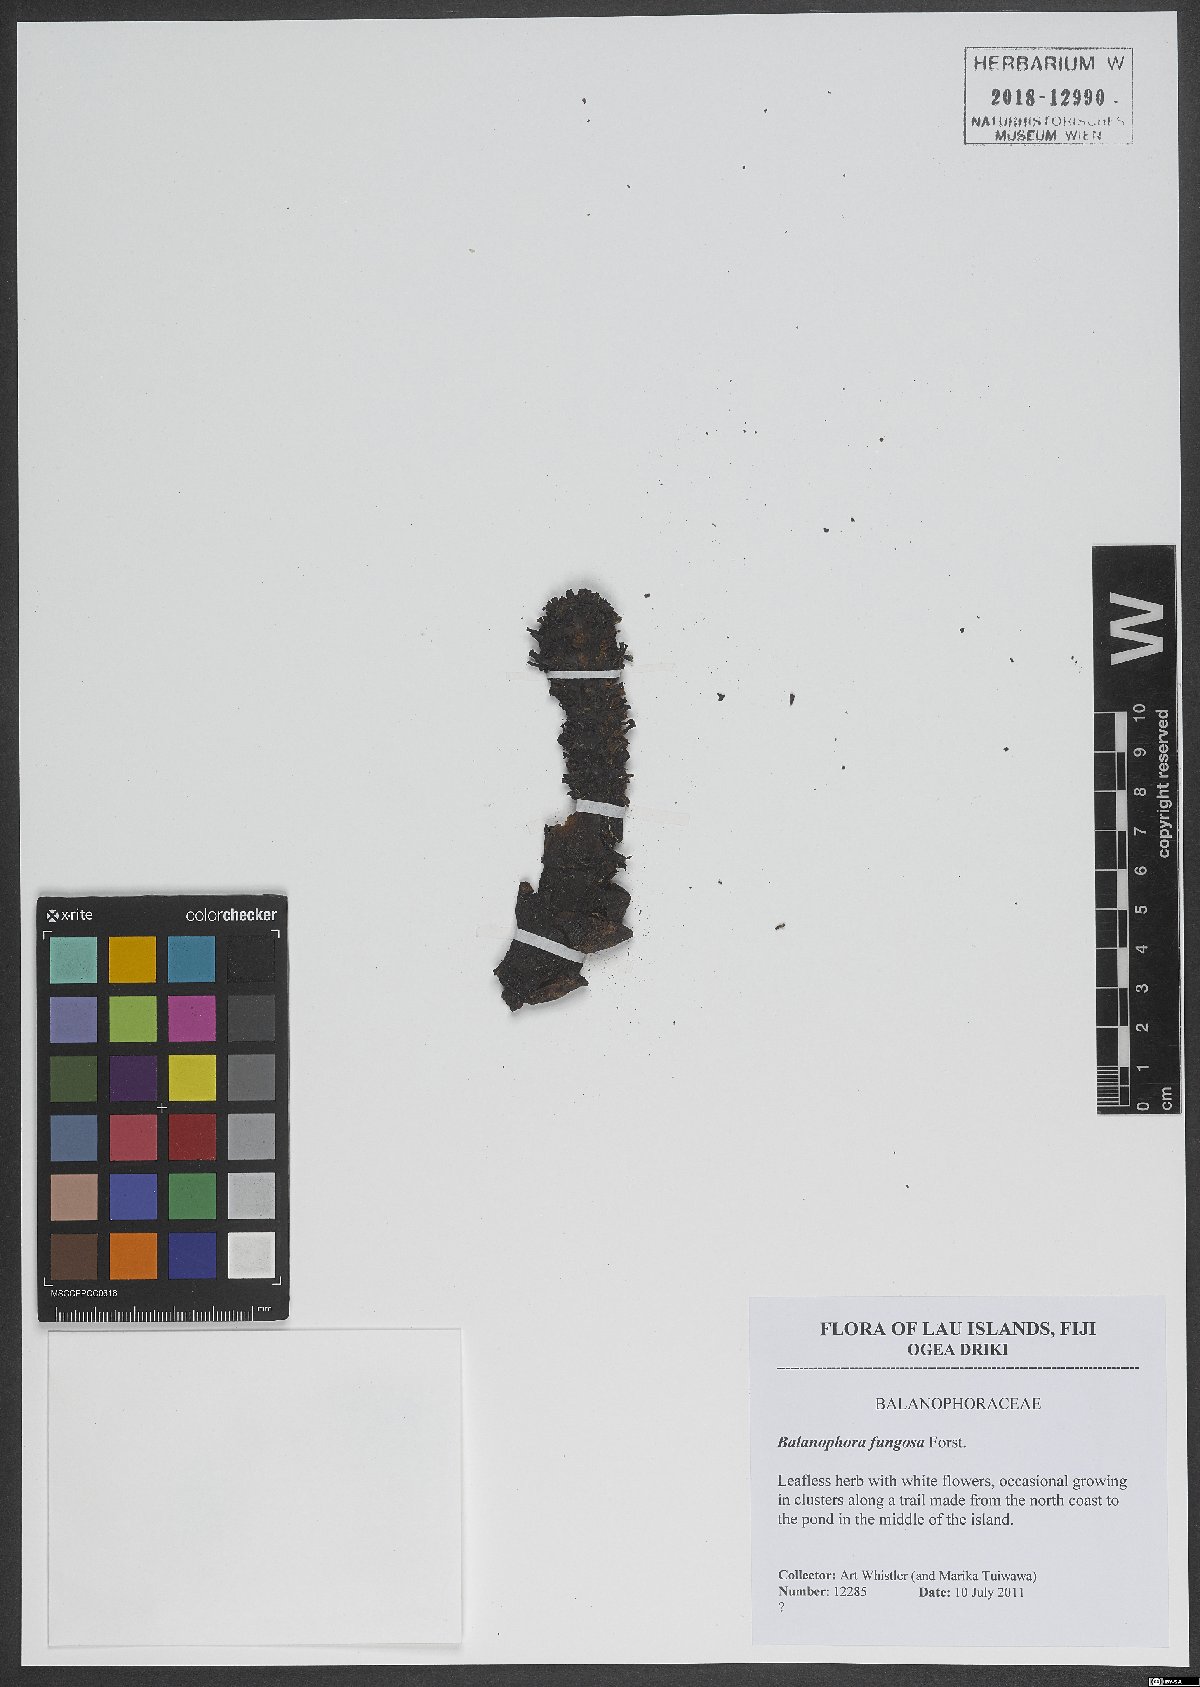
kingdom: Plantae
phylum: Tracheophyta
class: Magnoliopsida
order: Santalales
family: Balanophoraceae
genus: Balanophora
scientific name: Balanophora fungosa
